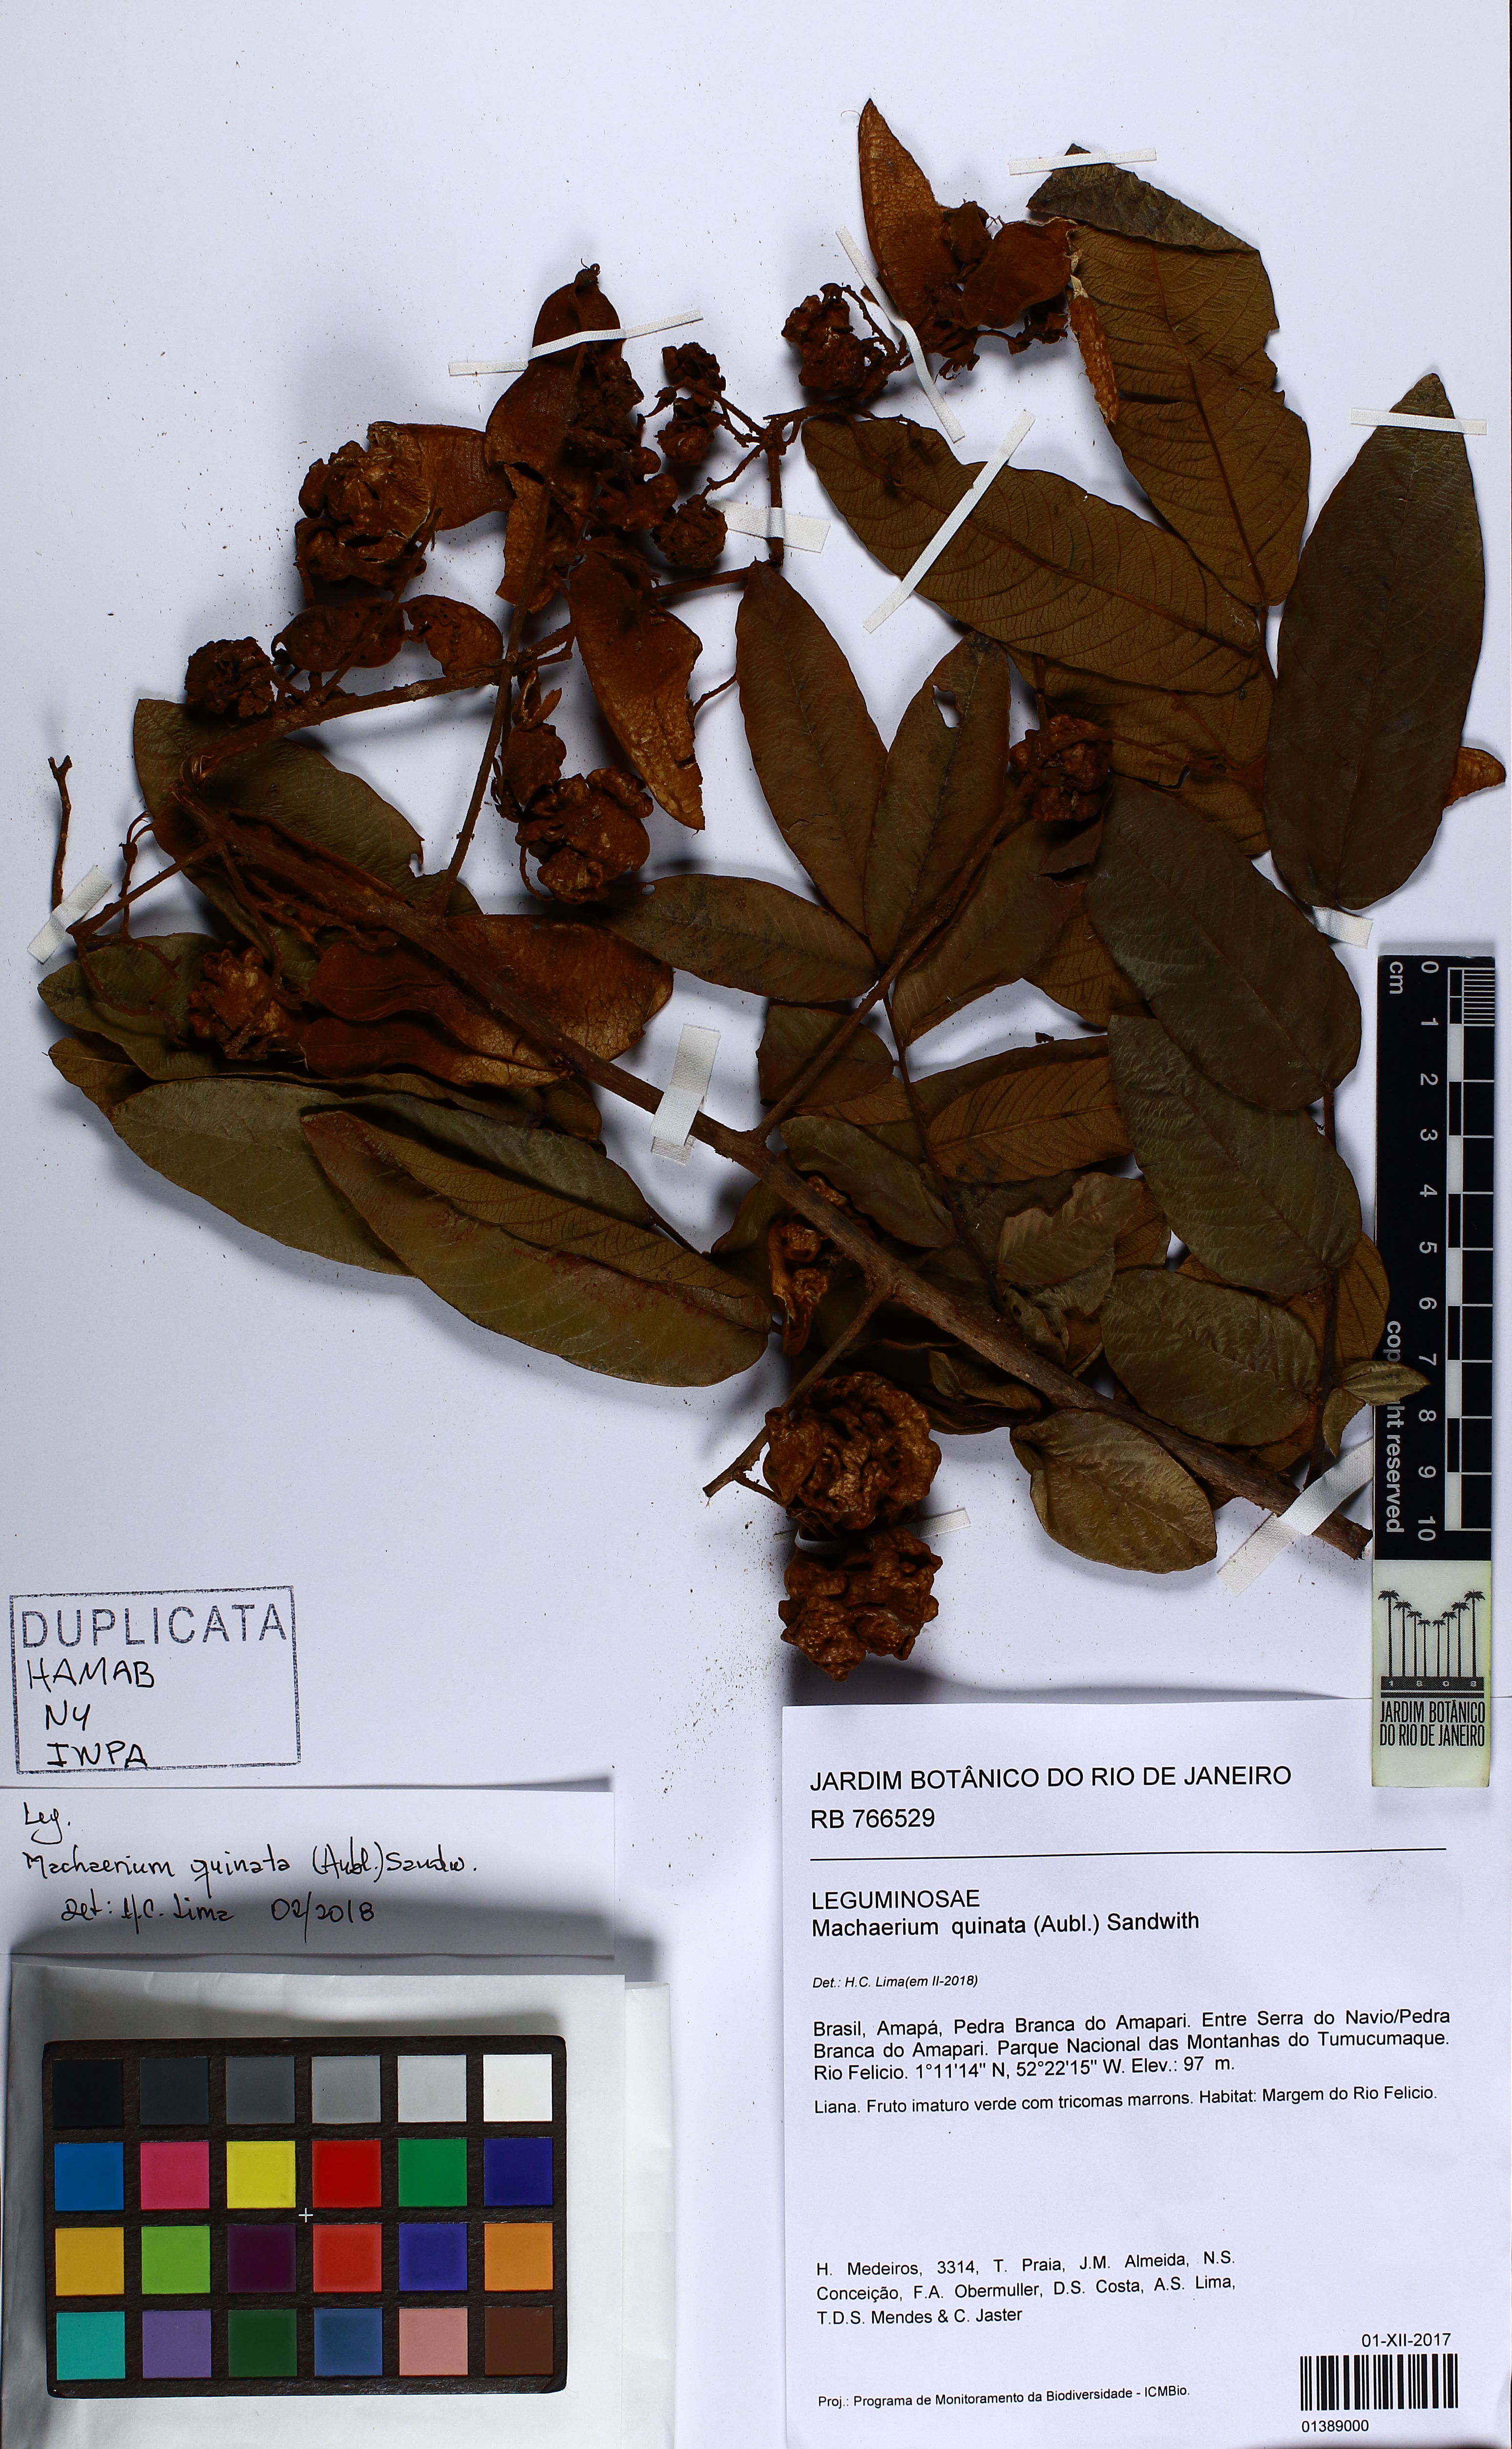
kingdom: Plantae
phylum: Tracheophyta
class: Magnoliopsida
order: Fabales
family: Fabaceae
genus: Machaerium
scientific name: Machaerium quinata
